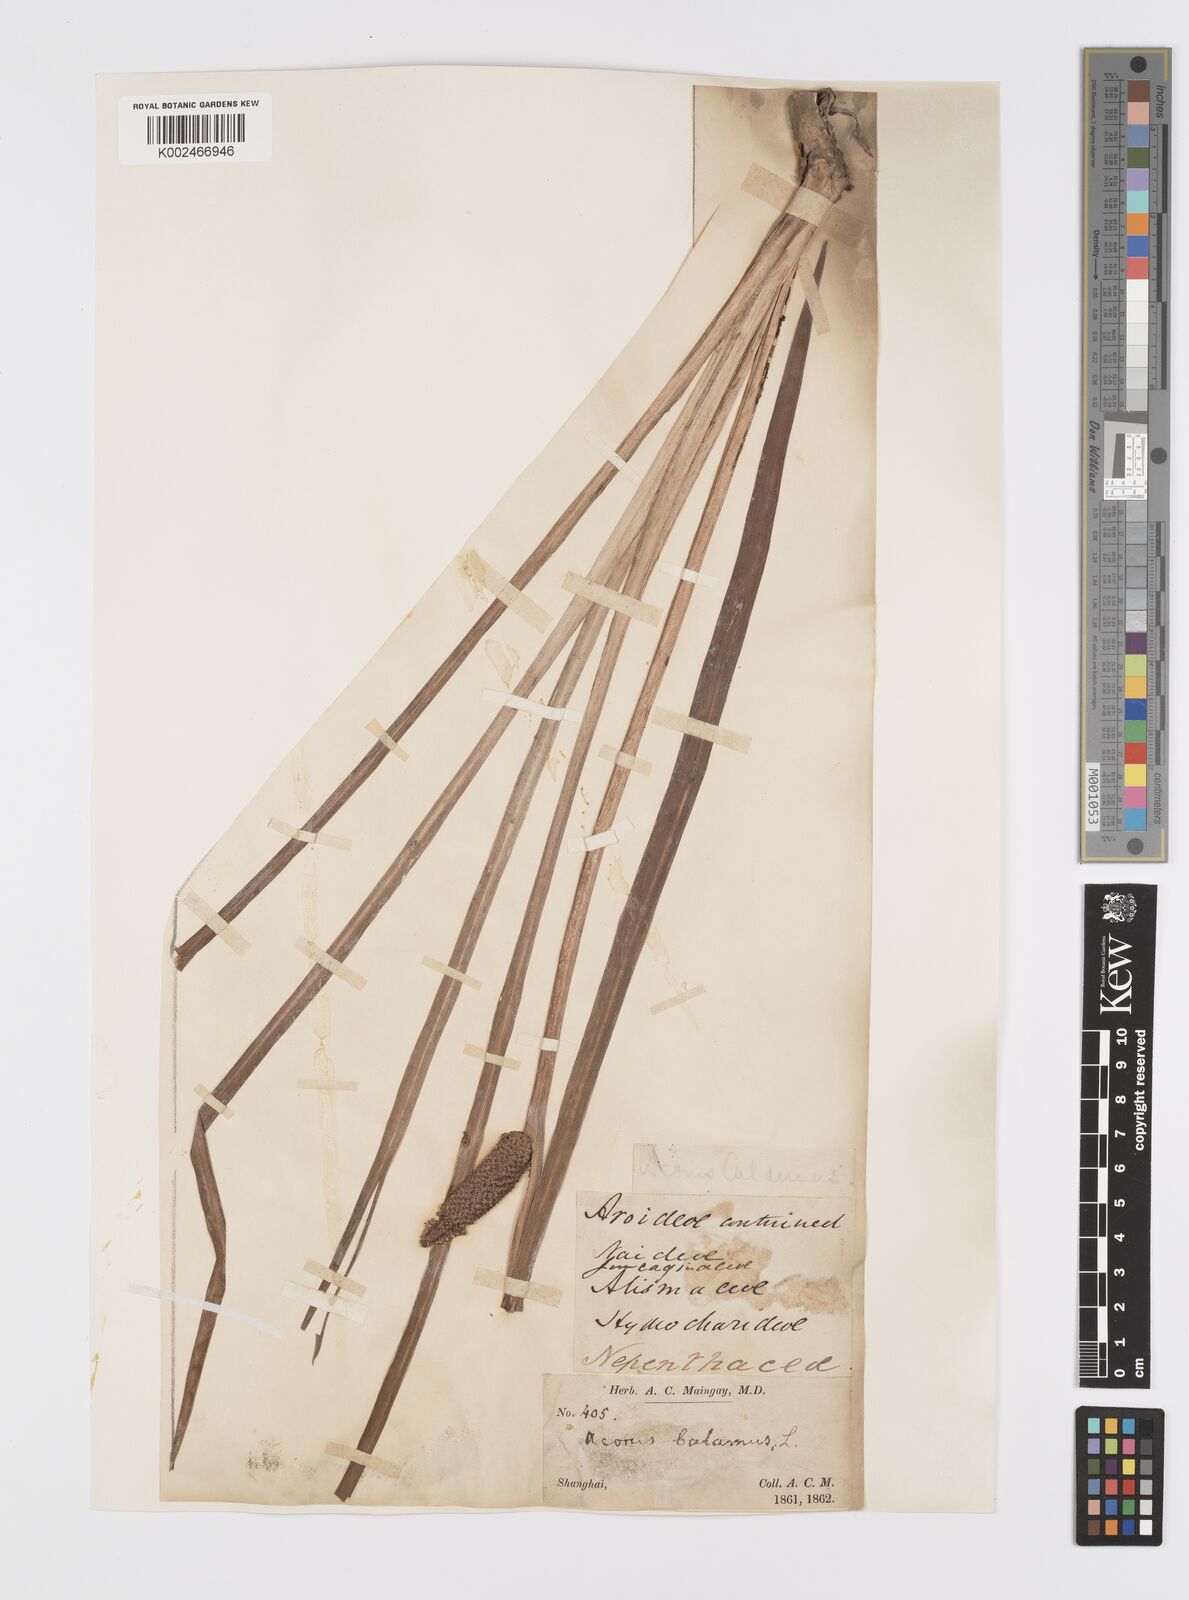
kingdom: Plantae
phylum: Tracheophyta
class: Liliopsida
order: Acorales
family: Acoraceae
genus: Acorus
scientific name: Acorus calamus
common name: Sweet-flag
